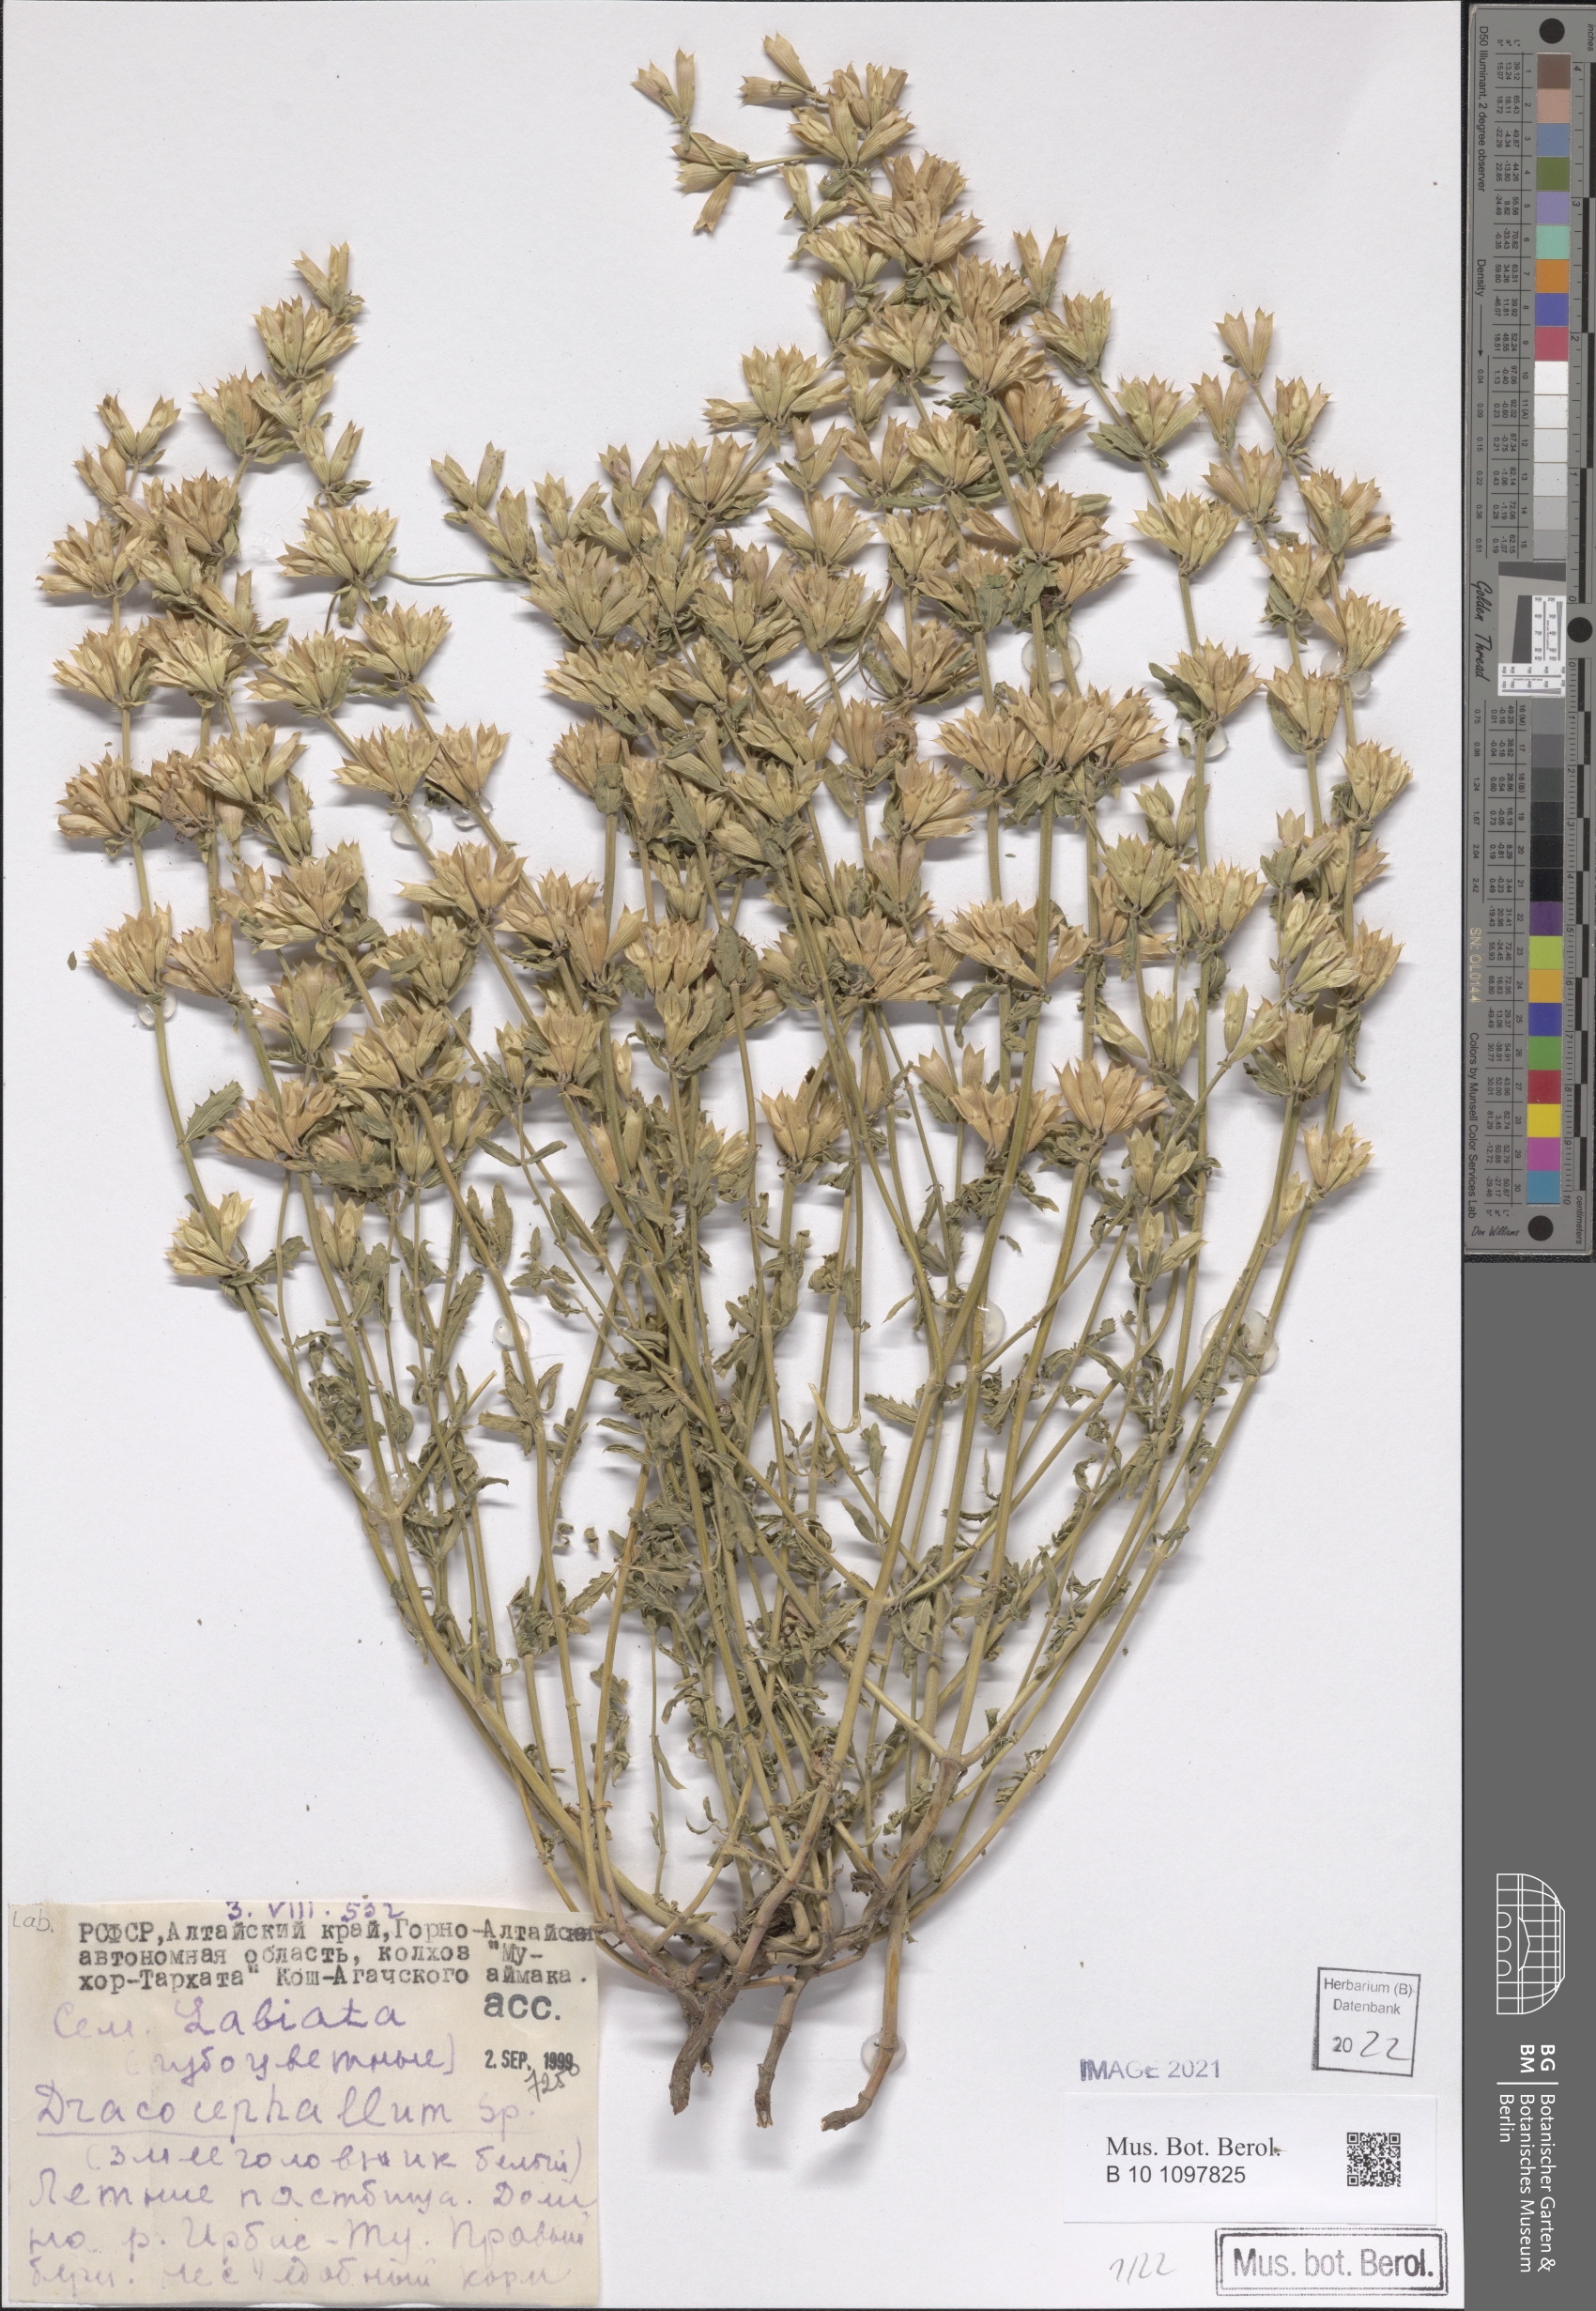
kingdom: Plantae
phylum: Tracheophyta
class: Magnoliopsida
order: Lamiales
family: Lamiaceae
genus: Dracocephalum
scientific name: Dracocephalum
